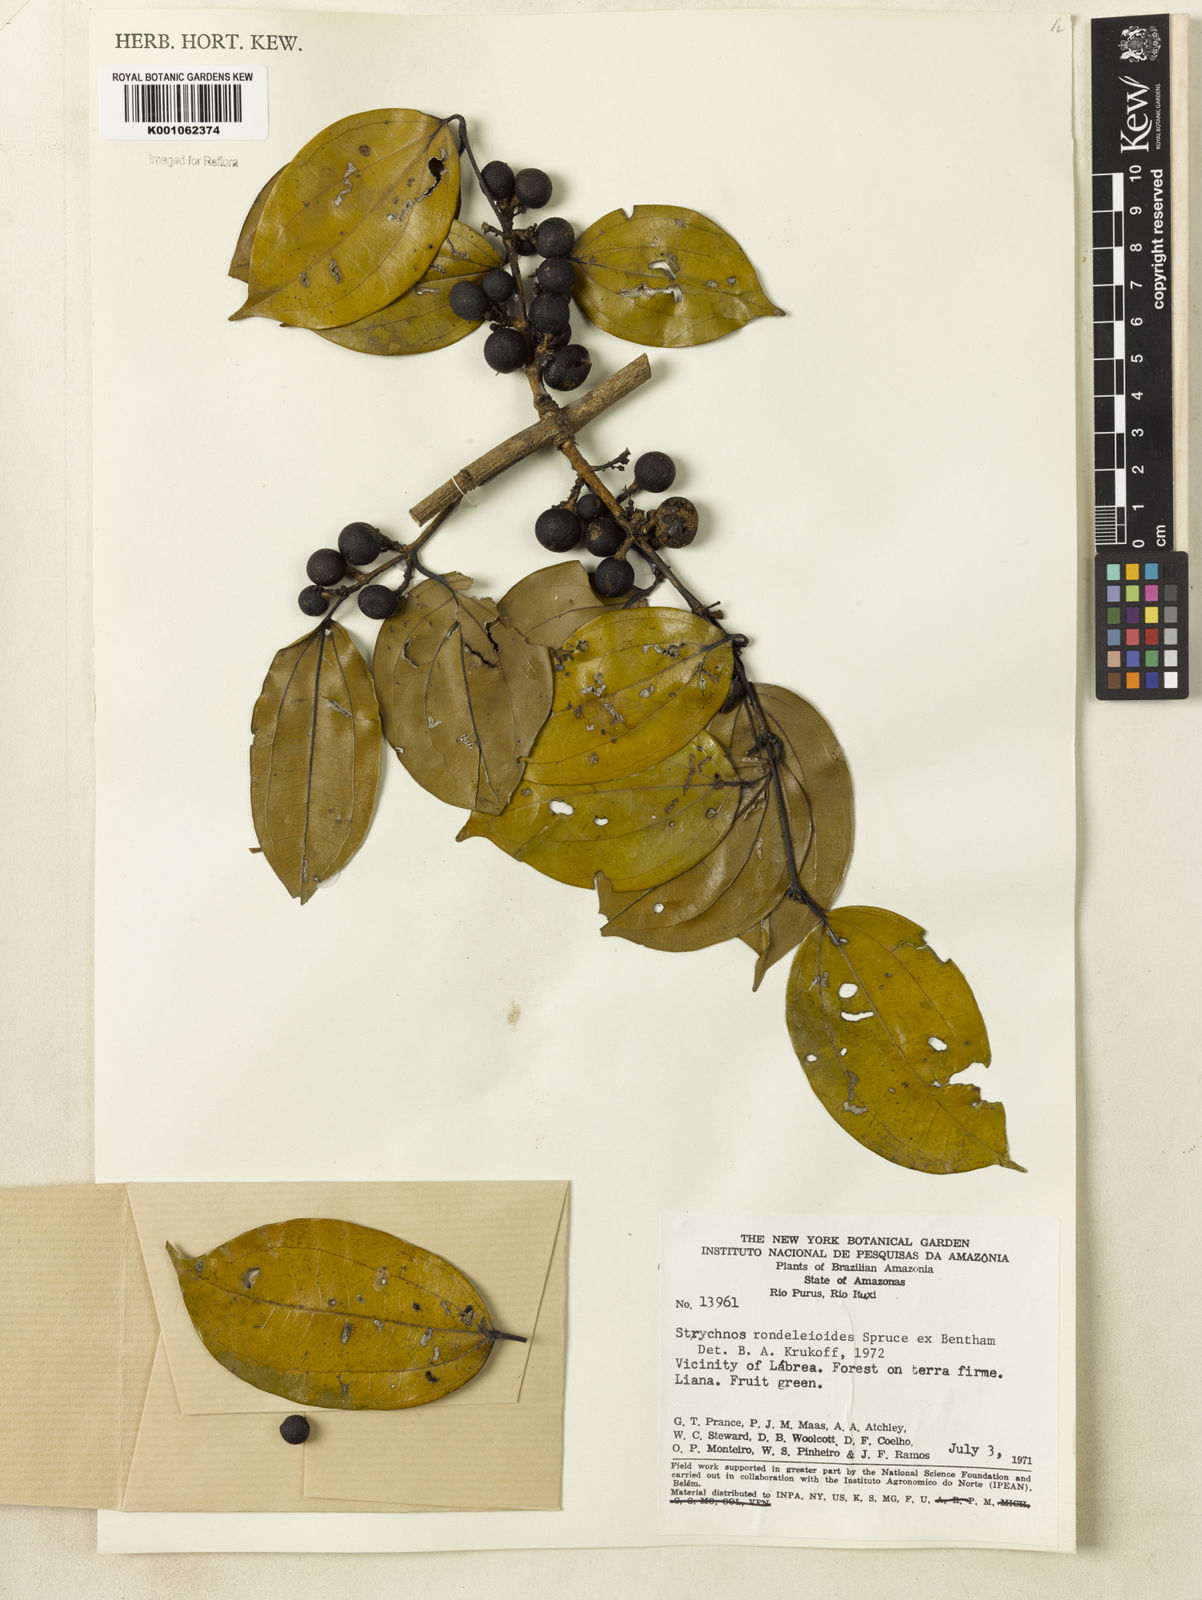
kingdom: Plantae
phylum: Tracheophyta
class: Magnoliopsida
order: Gentianales
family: Loganiaceae
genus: Strychnos
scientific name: Strychnos rondeletioides
